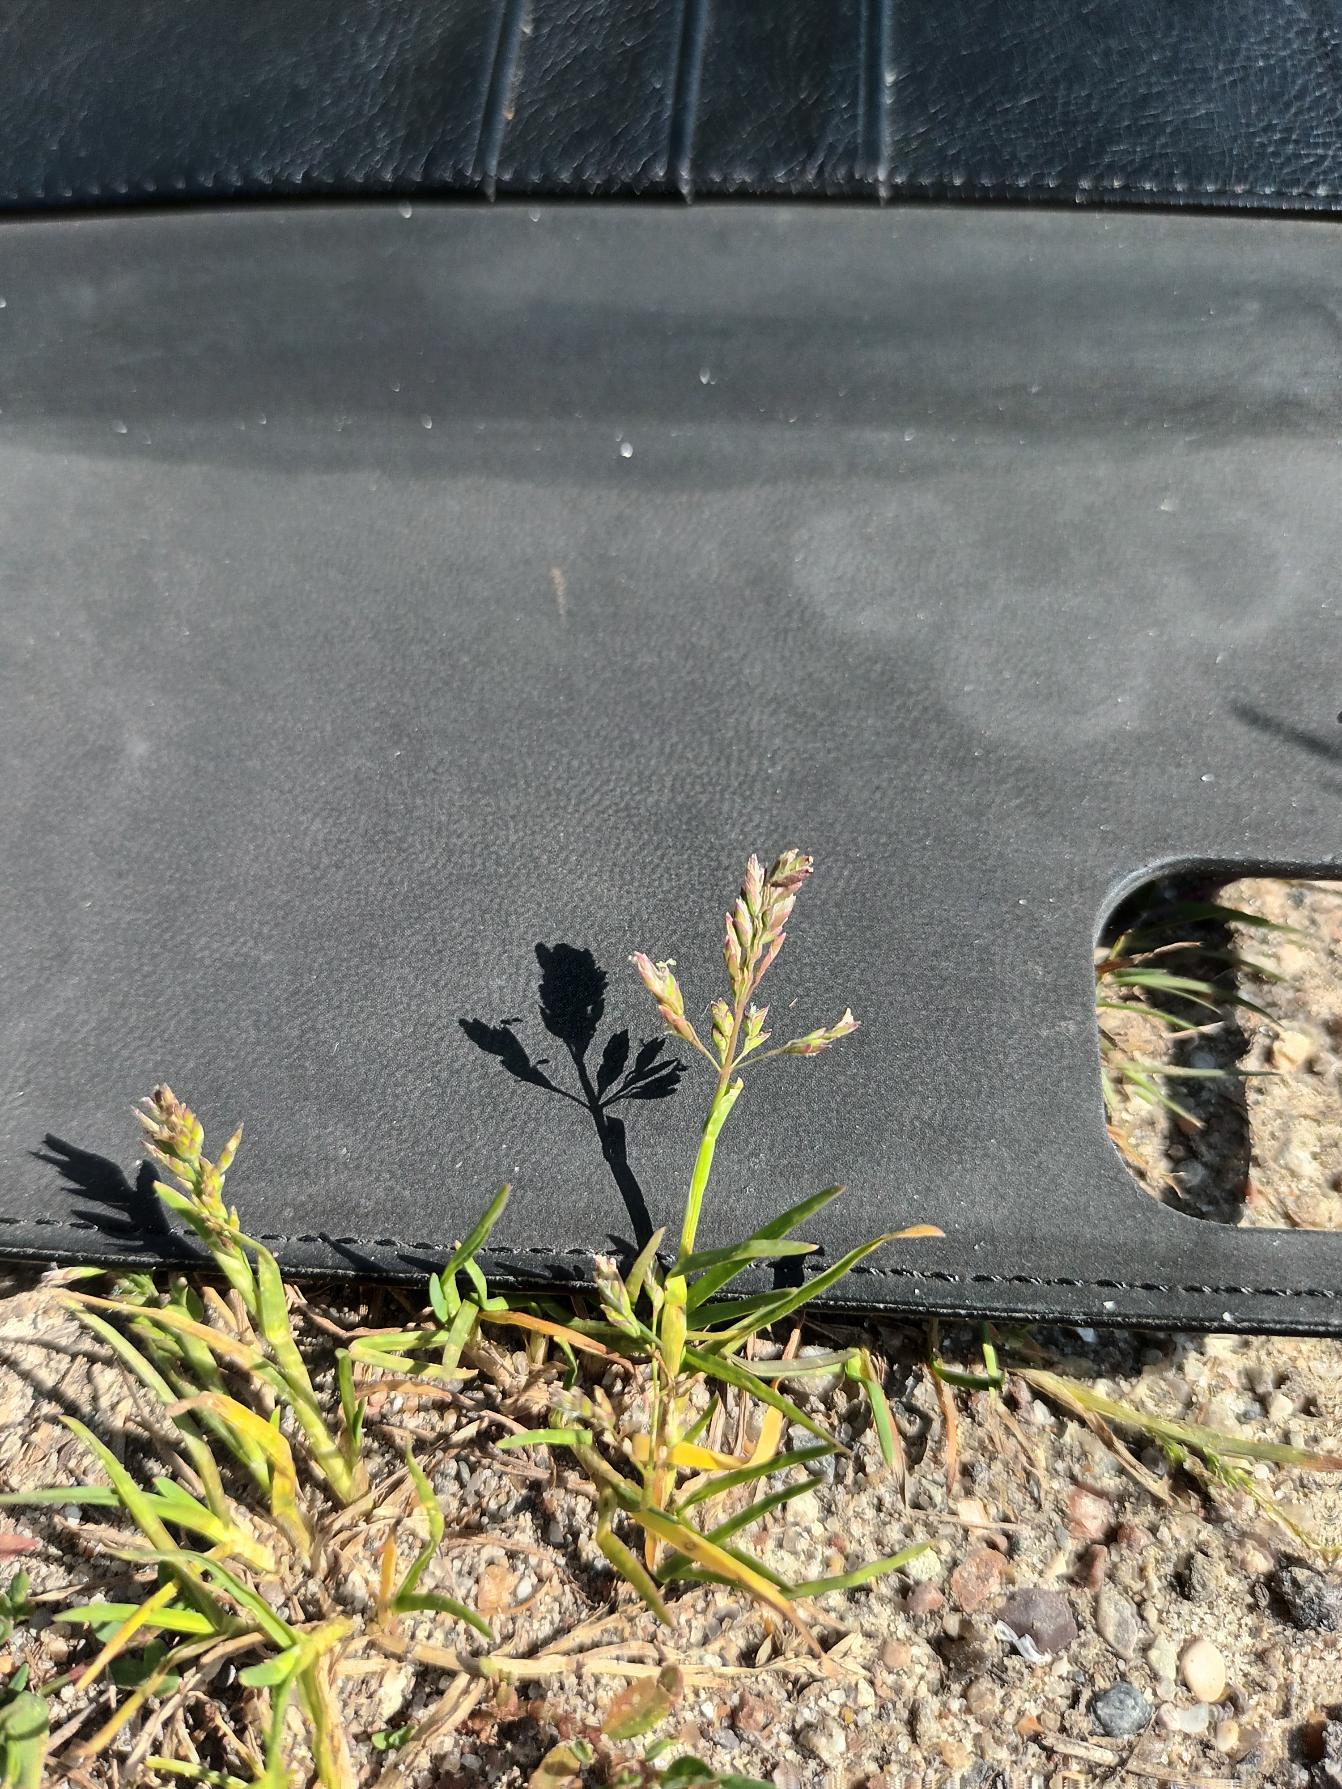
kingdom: Plantae
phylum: Tracheophyta
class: Liliopsida
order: Poales
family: Poaceae
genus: Poa
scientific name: Poa annua
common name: Enårig rapgræs
